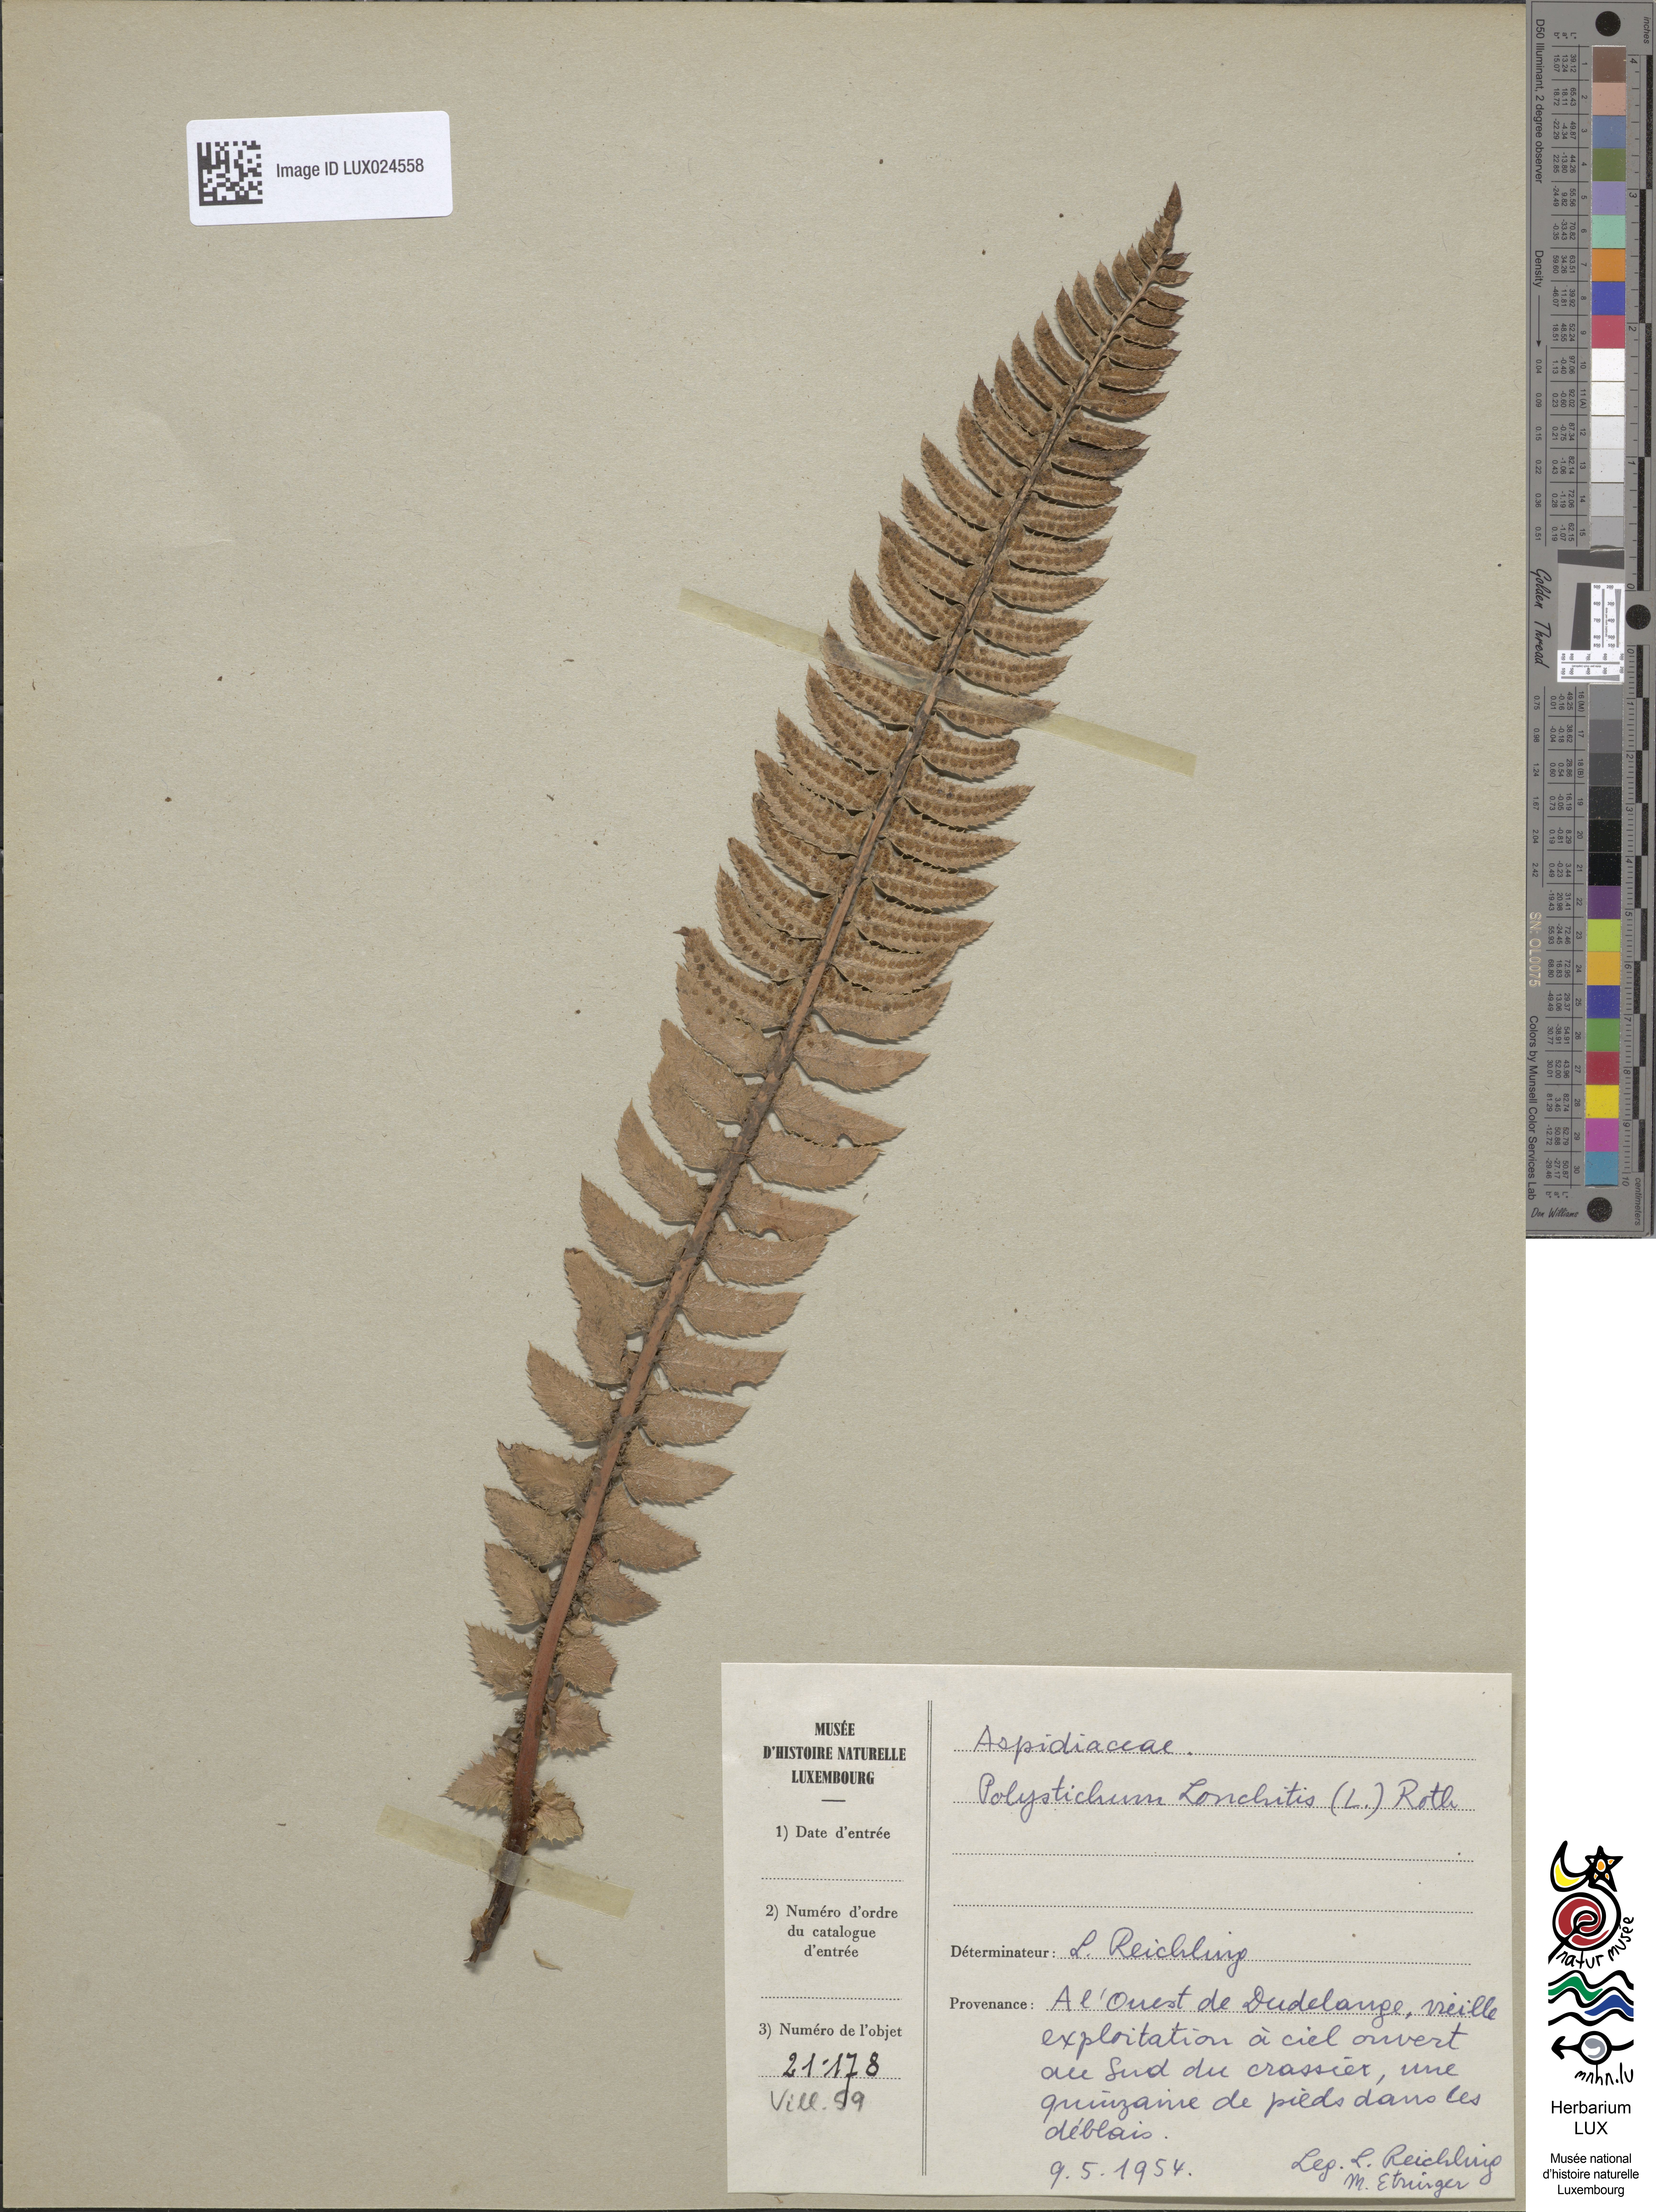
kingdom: Plantae
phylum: Tracheophyta
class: Polypodiopsida
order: Polypodiales
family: Dryopteridaceae
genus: Polystichum
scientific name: Polystichum lonchitis
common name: Holly fern
